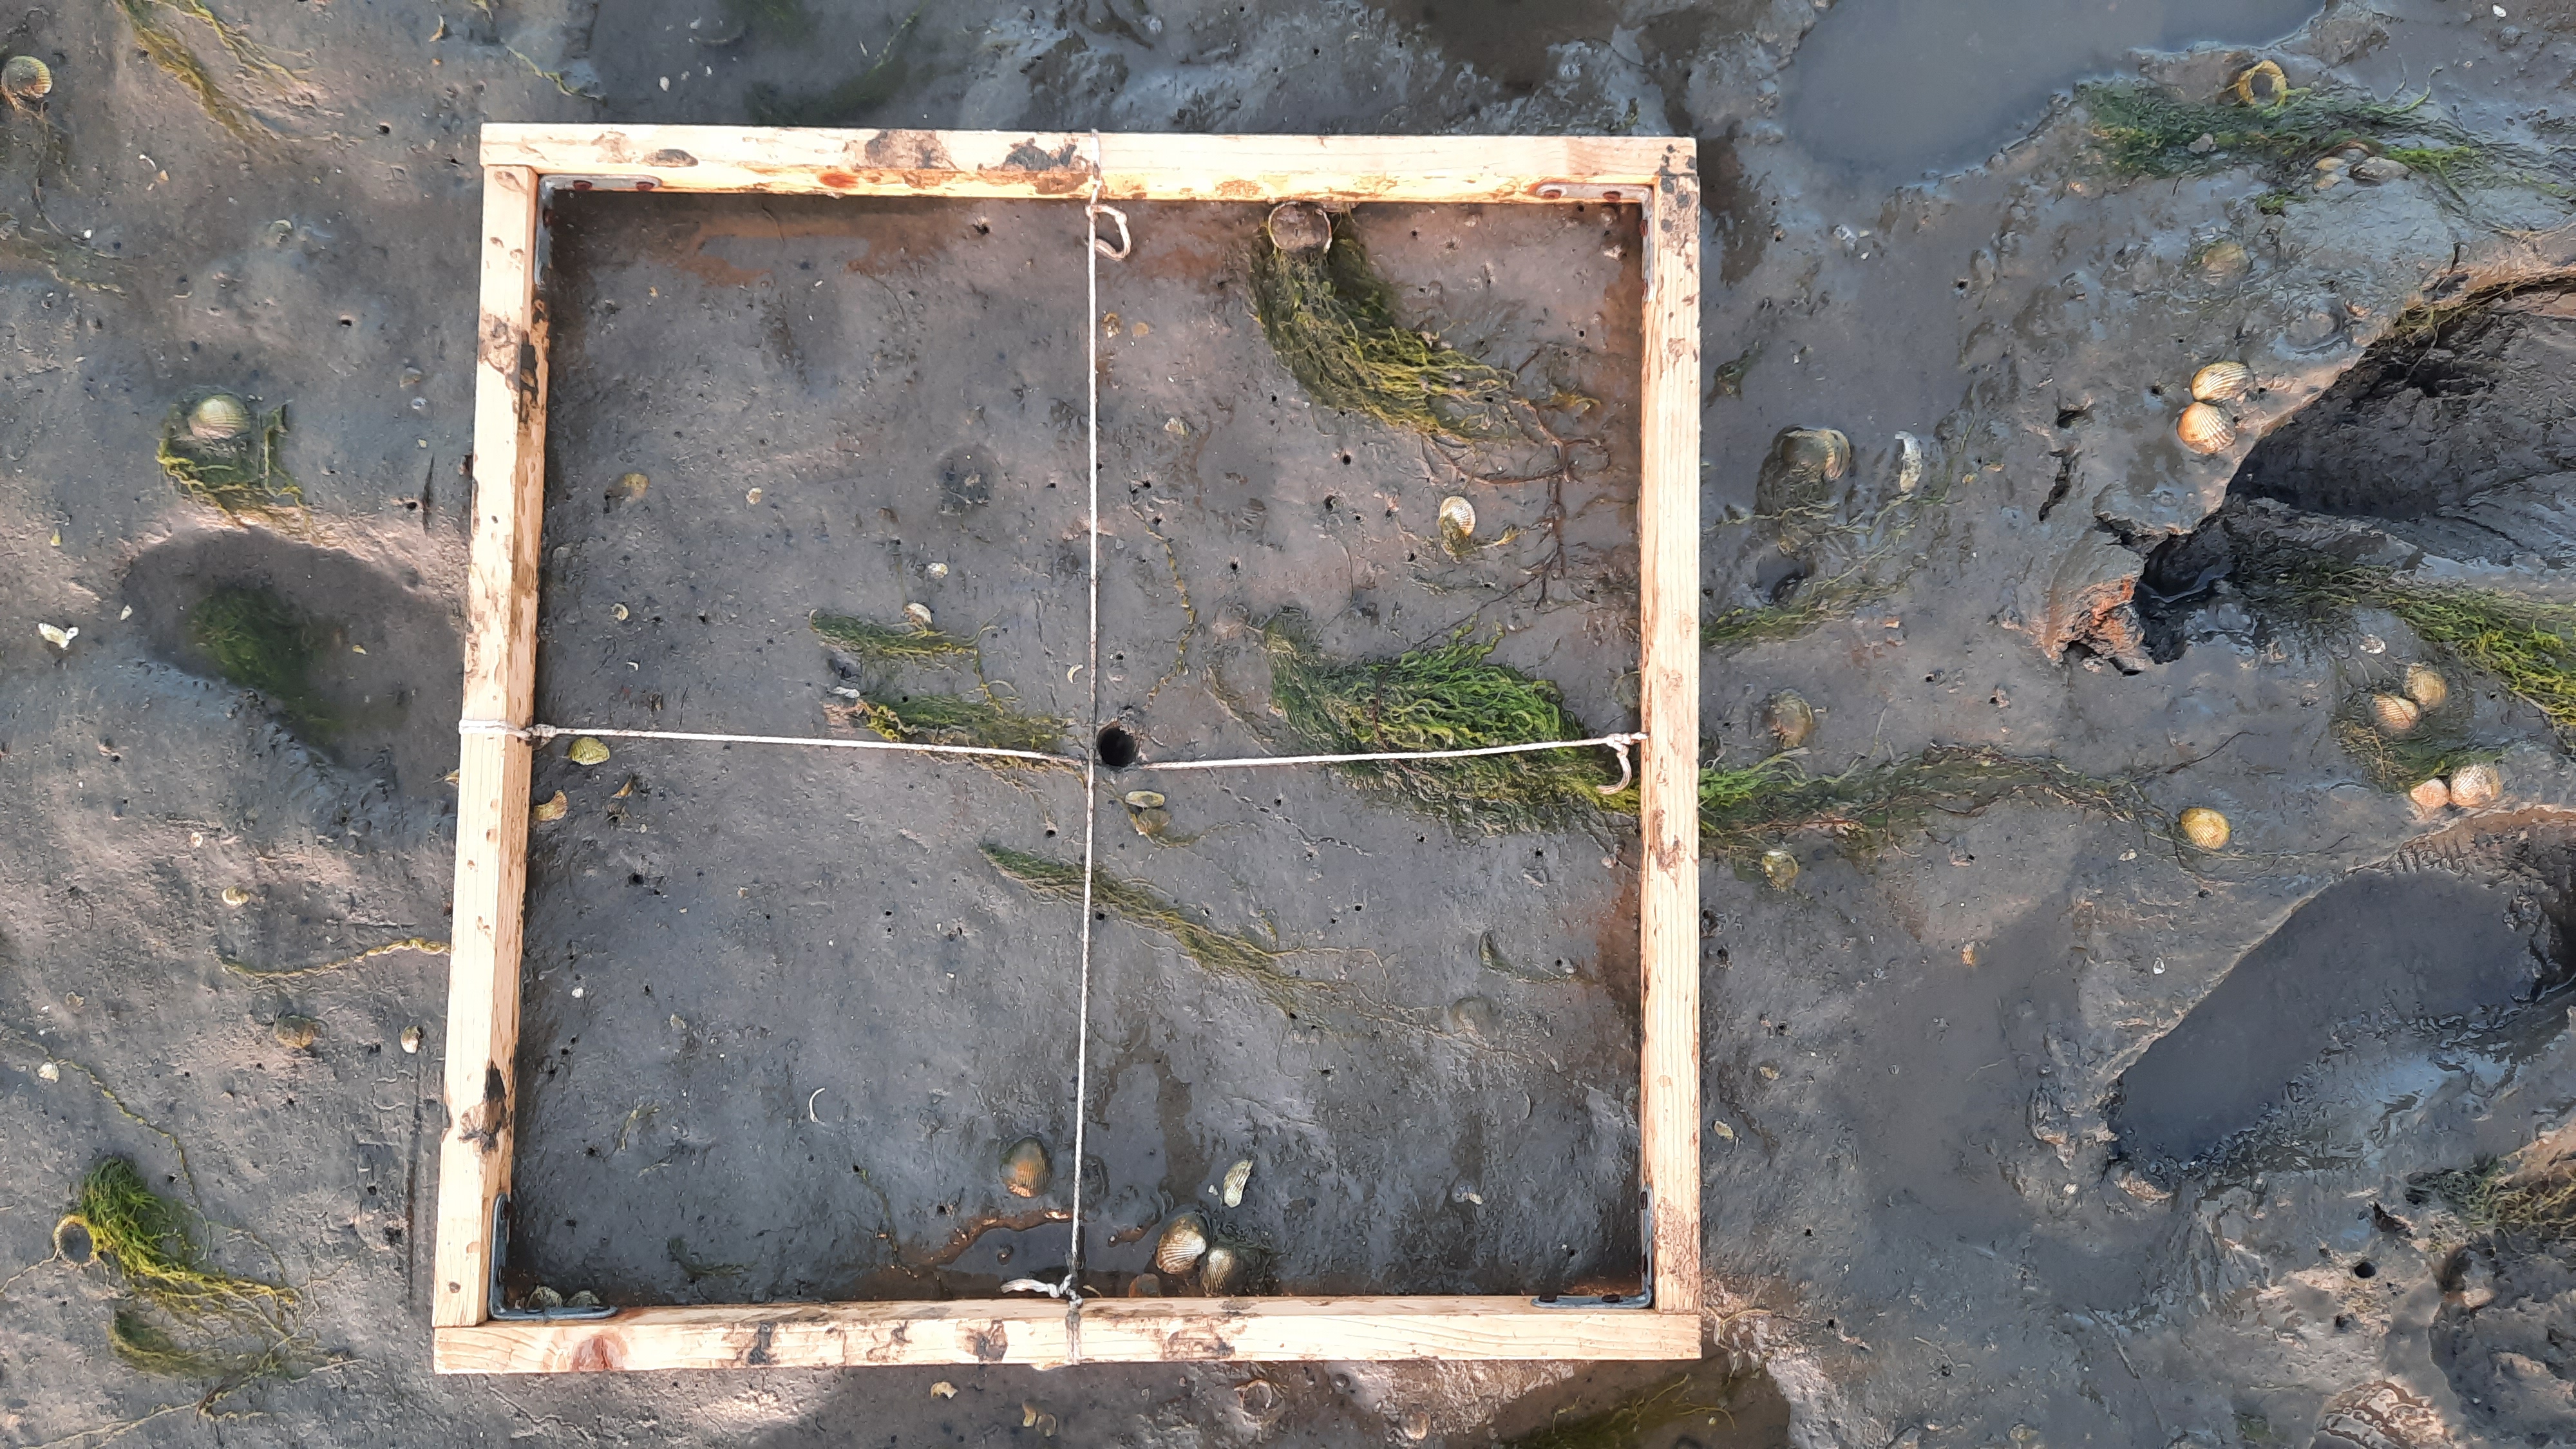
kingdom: Plantae
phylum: Chlorophyta
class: Ulvophyceae
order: Ulvales
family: Ulvaceae
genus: Ulva
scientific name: Ulva
